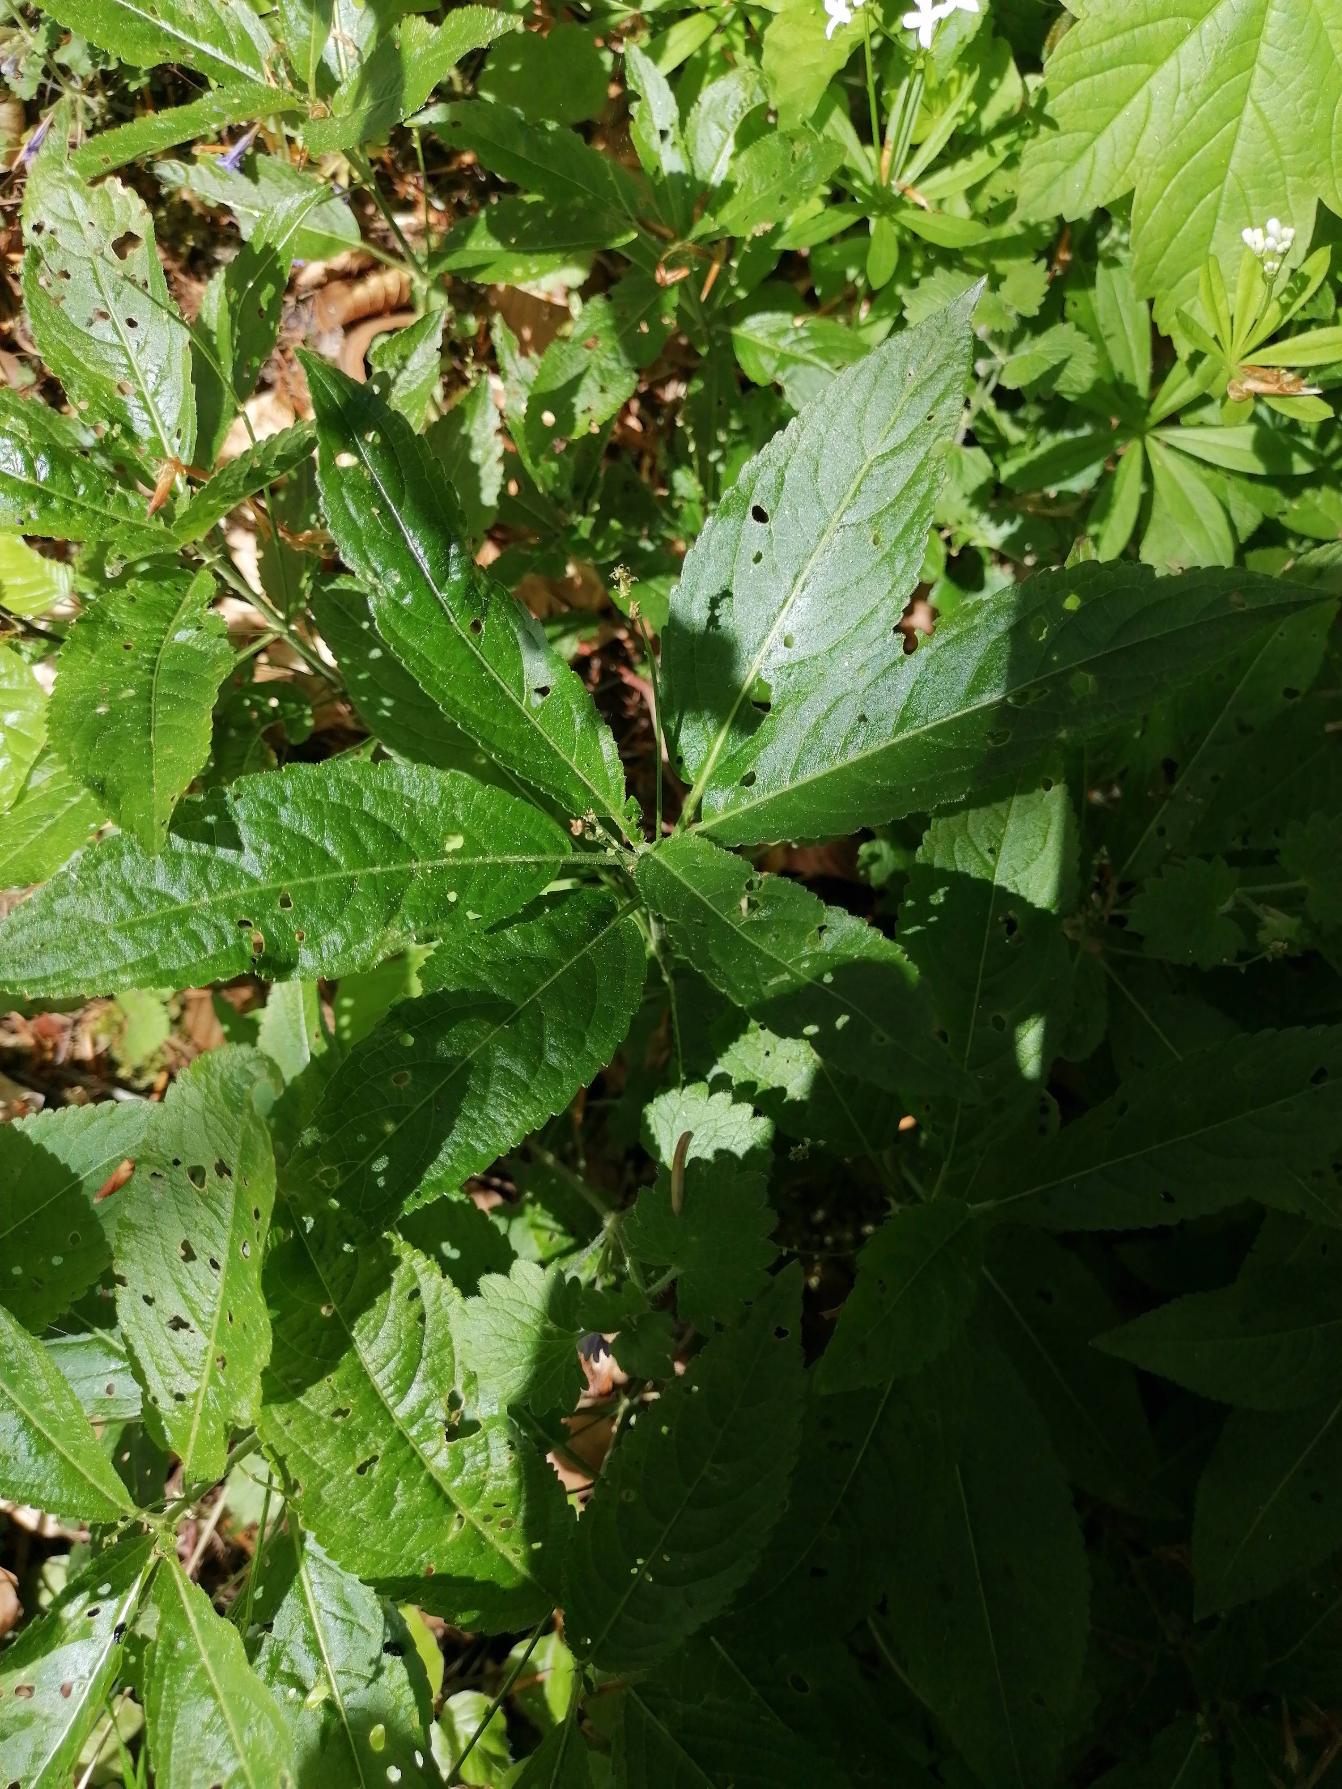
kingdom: Plantae
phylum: Tracheophyta
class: Magnoliopsida
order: Malpighiales
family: Euphorbiaceae
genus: Mercurialis
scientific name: Mercurialis perennis
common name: Almindelig bingelurt
